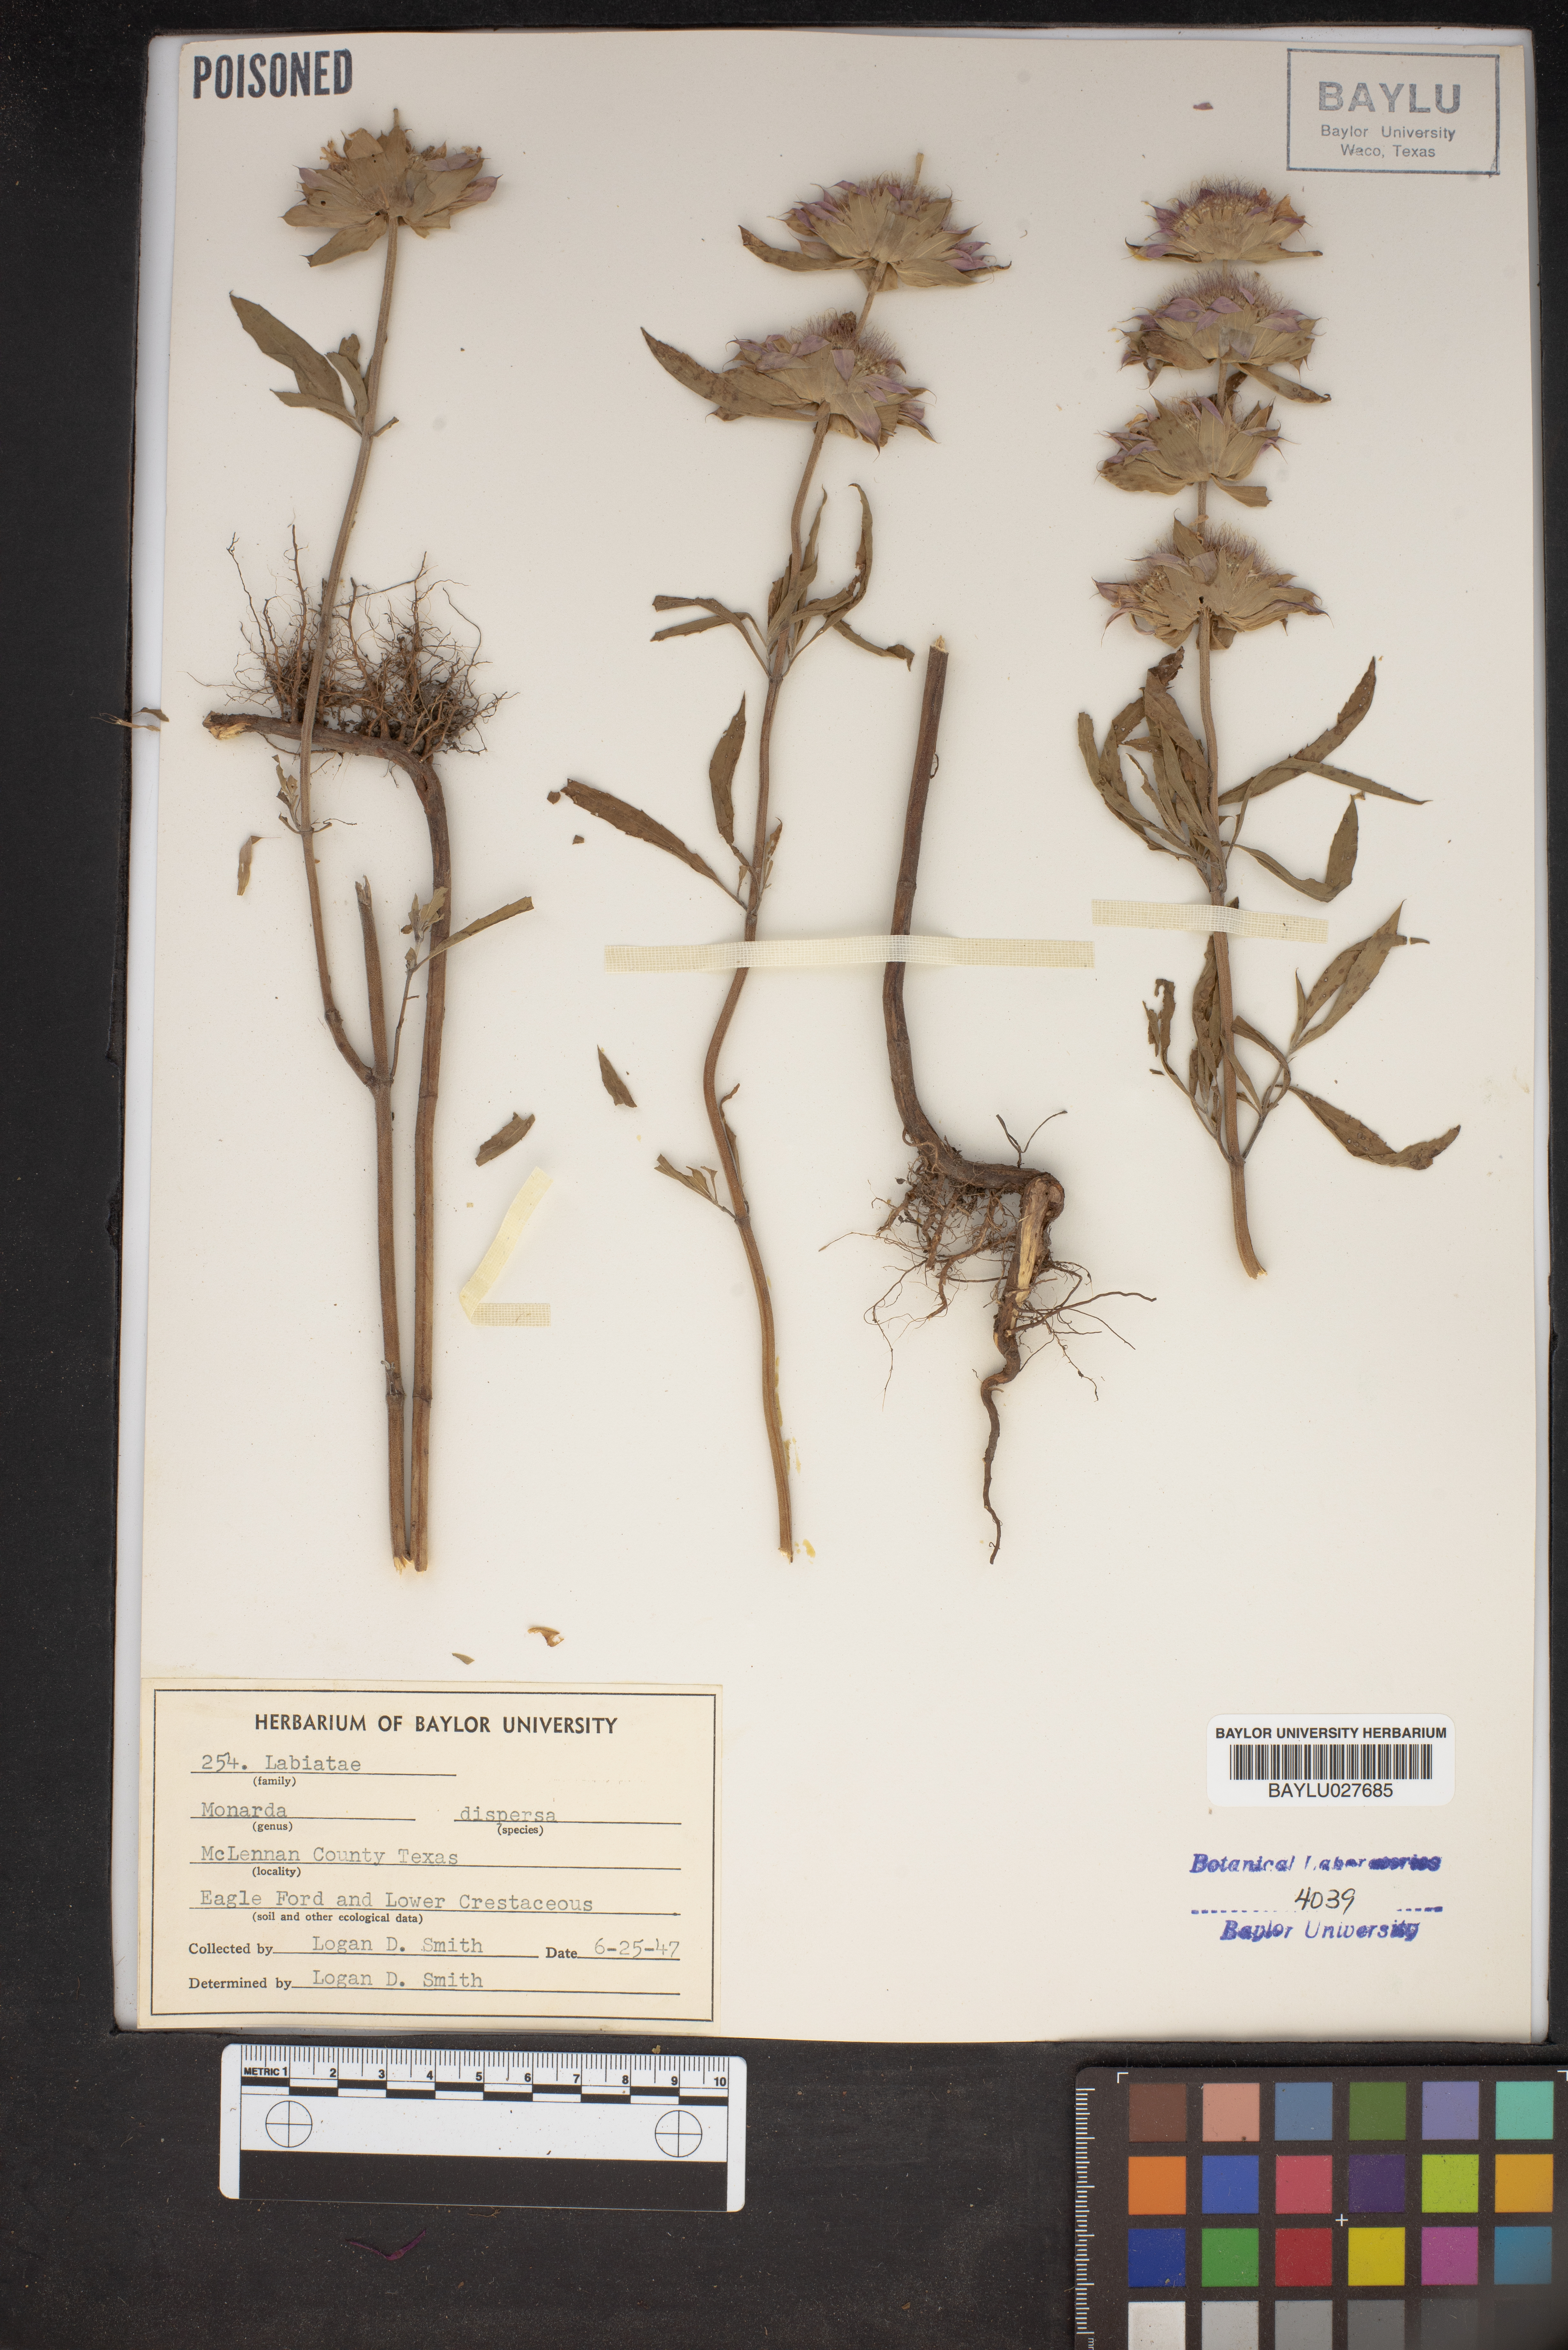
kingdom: Plantae
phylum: Tracheophyta
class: Magnoliopsida
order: Lamiales
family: Lamiaceae
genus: Monarda
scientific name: Monarda citriodora
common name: Lemon beebalm
